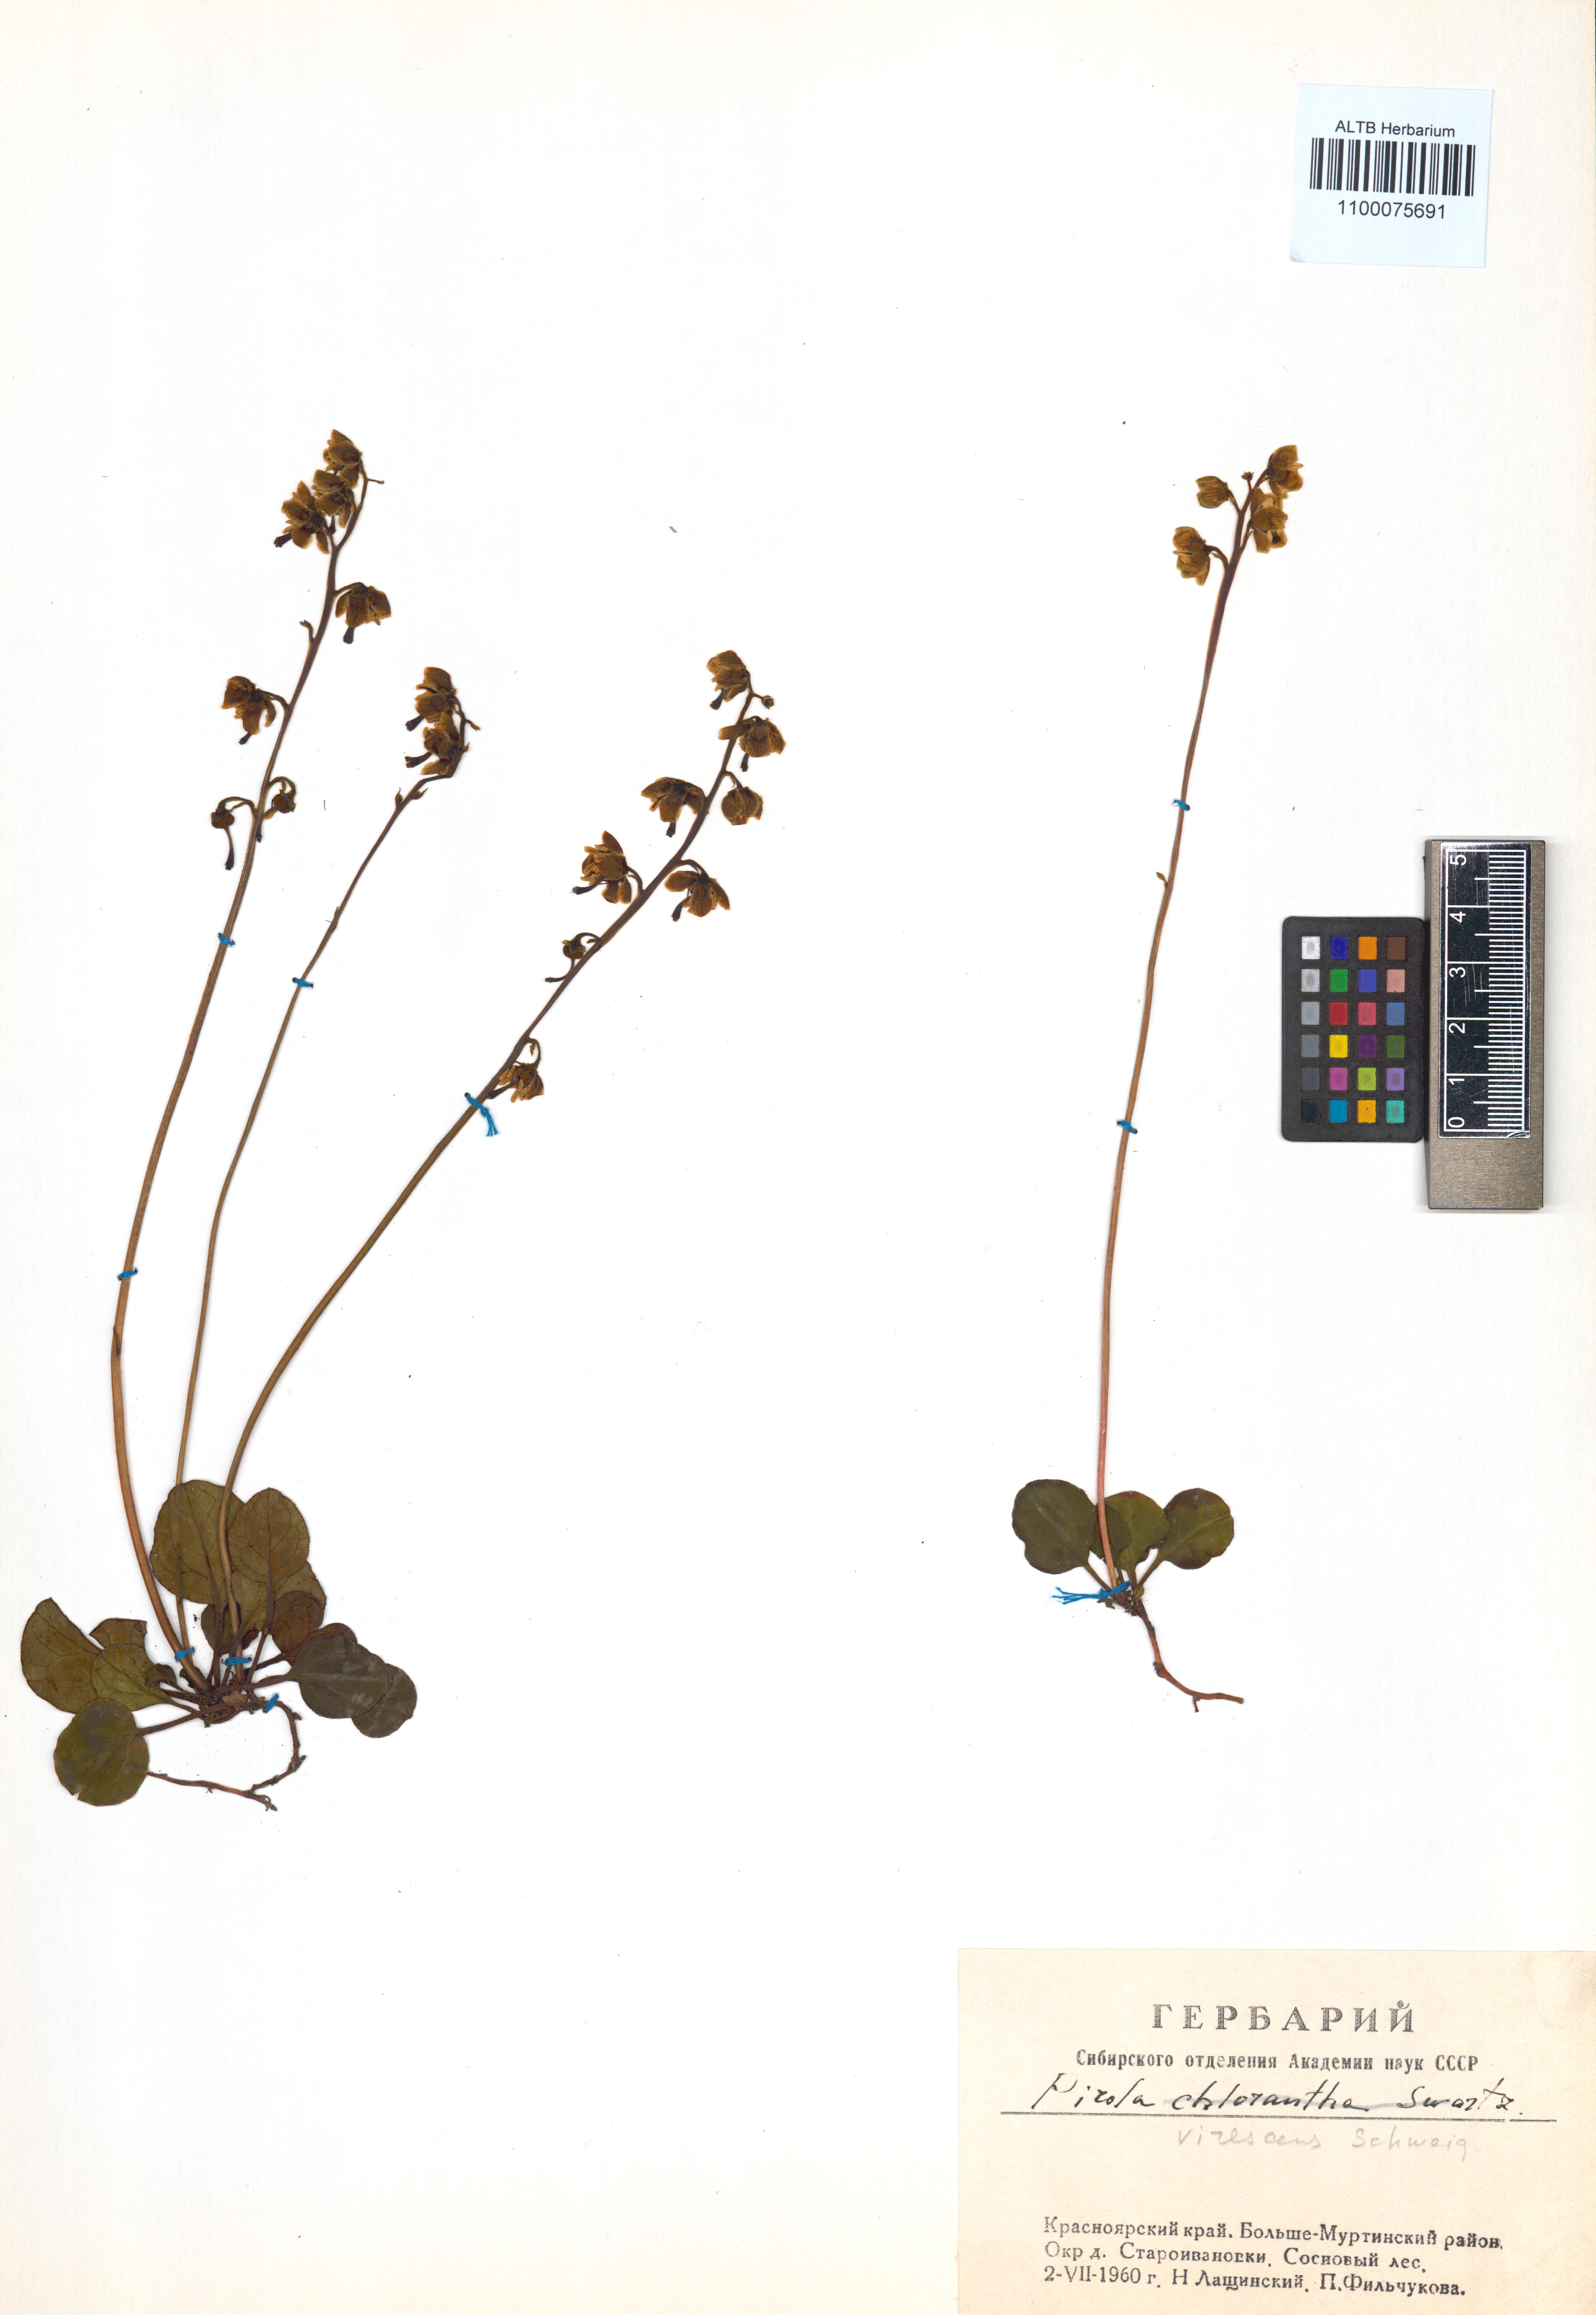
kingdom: Plantae
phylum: Tracheophyta
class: Magnoliopsida
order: Ericales
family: Ericaceae
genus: Pyrola
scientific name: Pyrola chlorantha
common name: Green wintergreen
